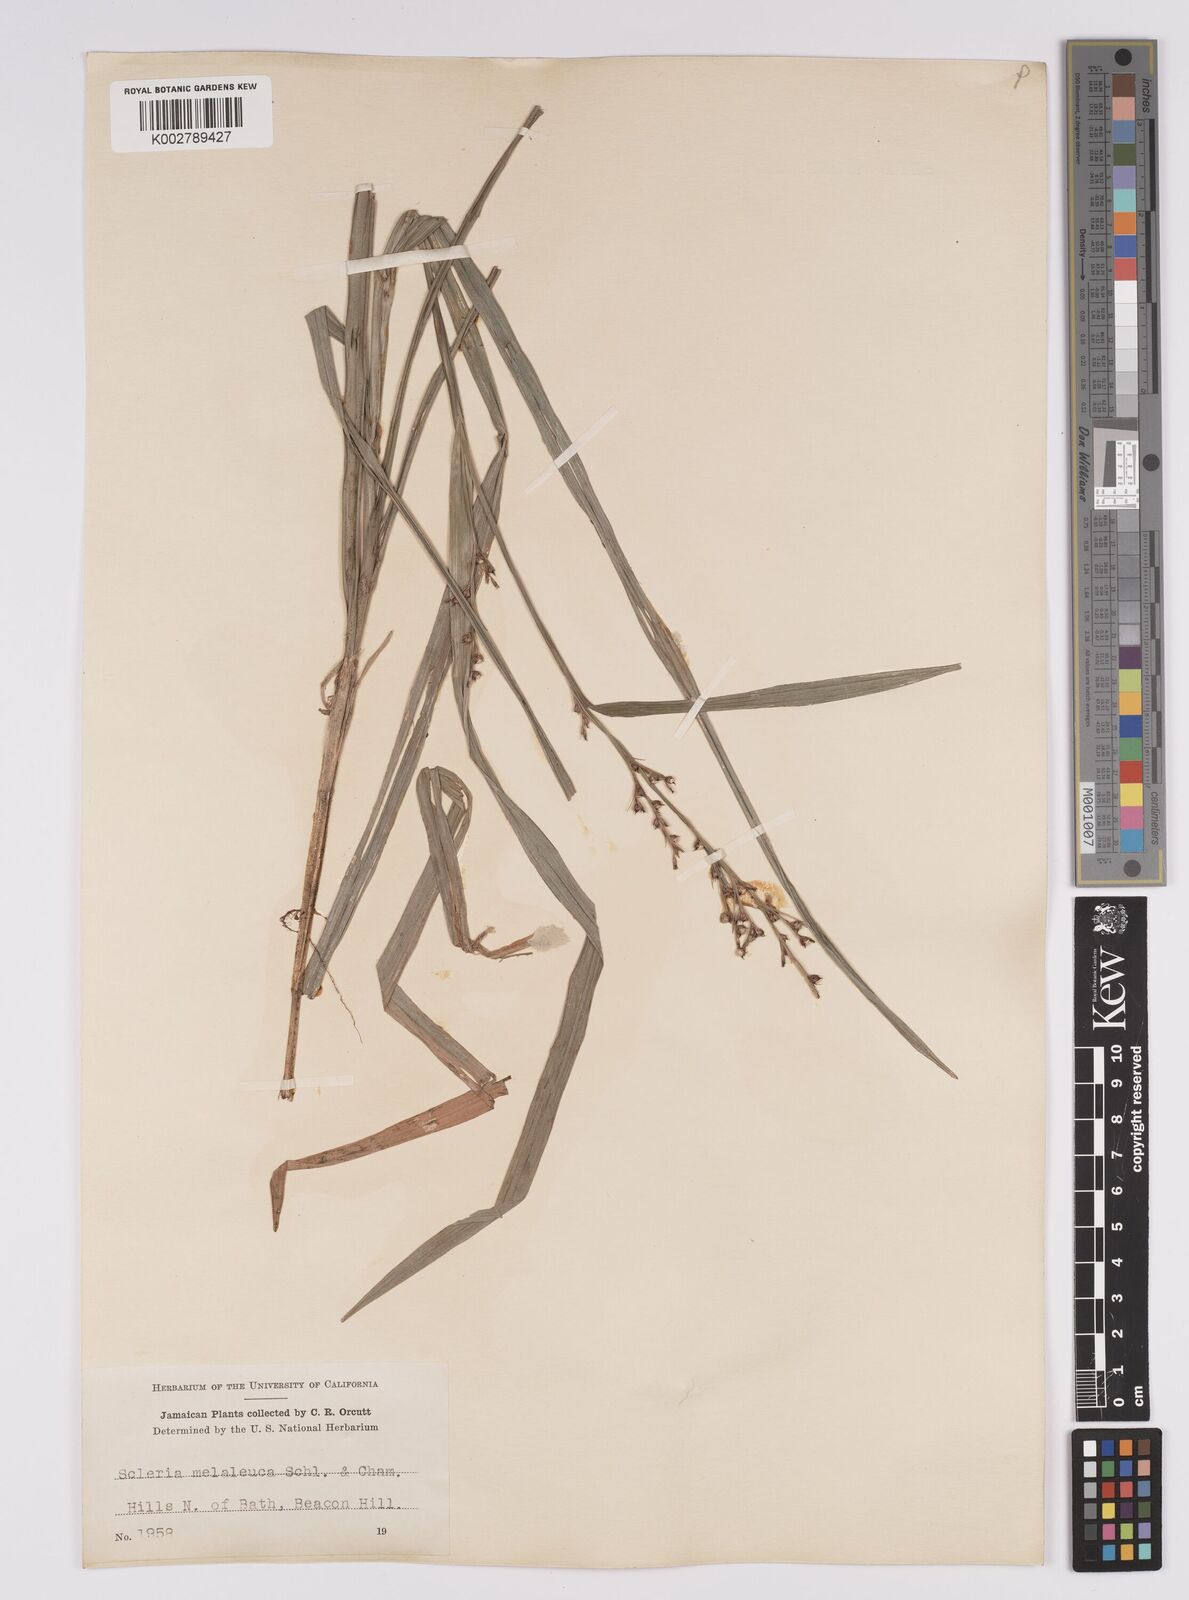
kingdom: Plantae
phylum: Tracheophyta
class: Liliopsida
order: Poales
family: Cyperaceae
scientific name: Cyperaceae
